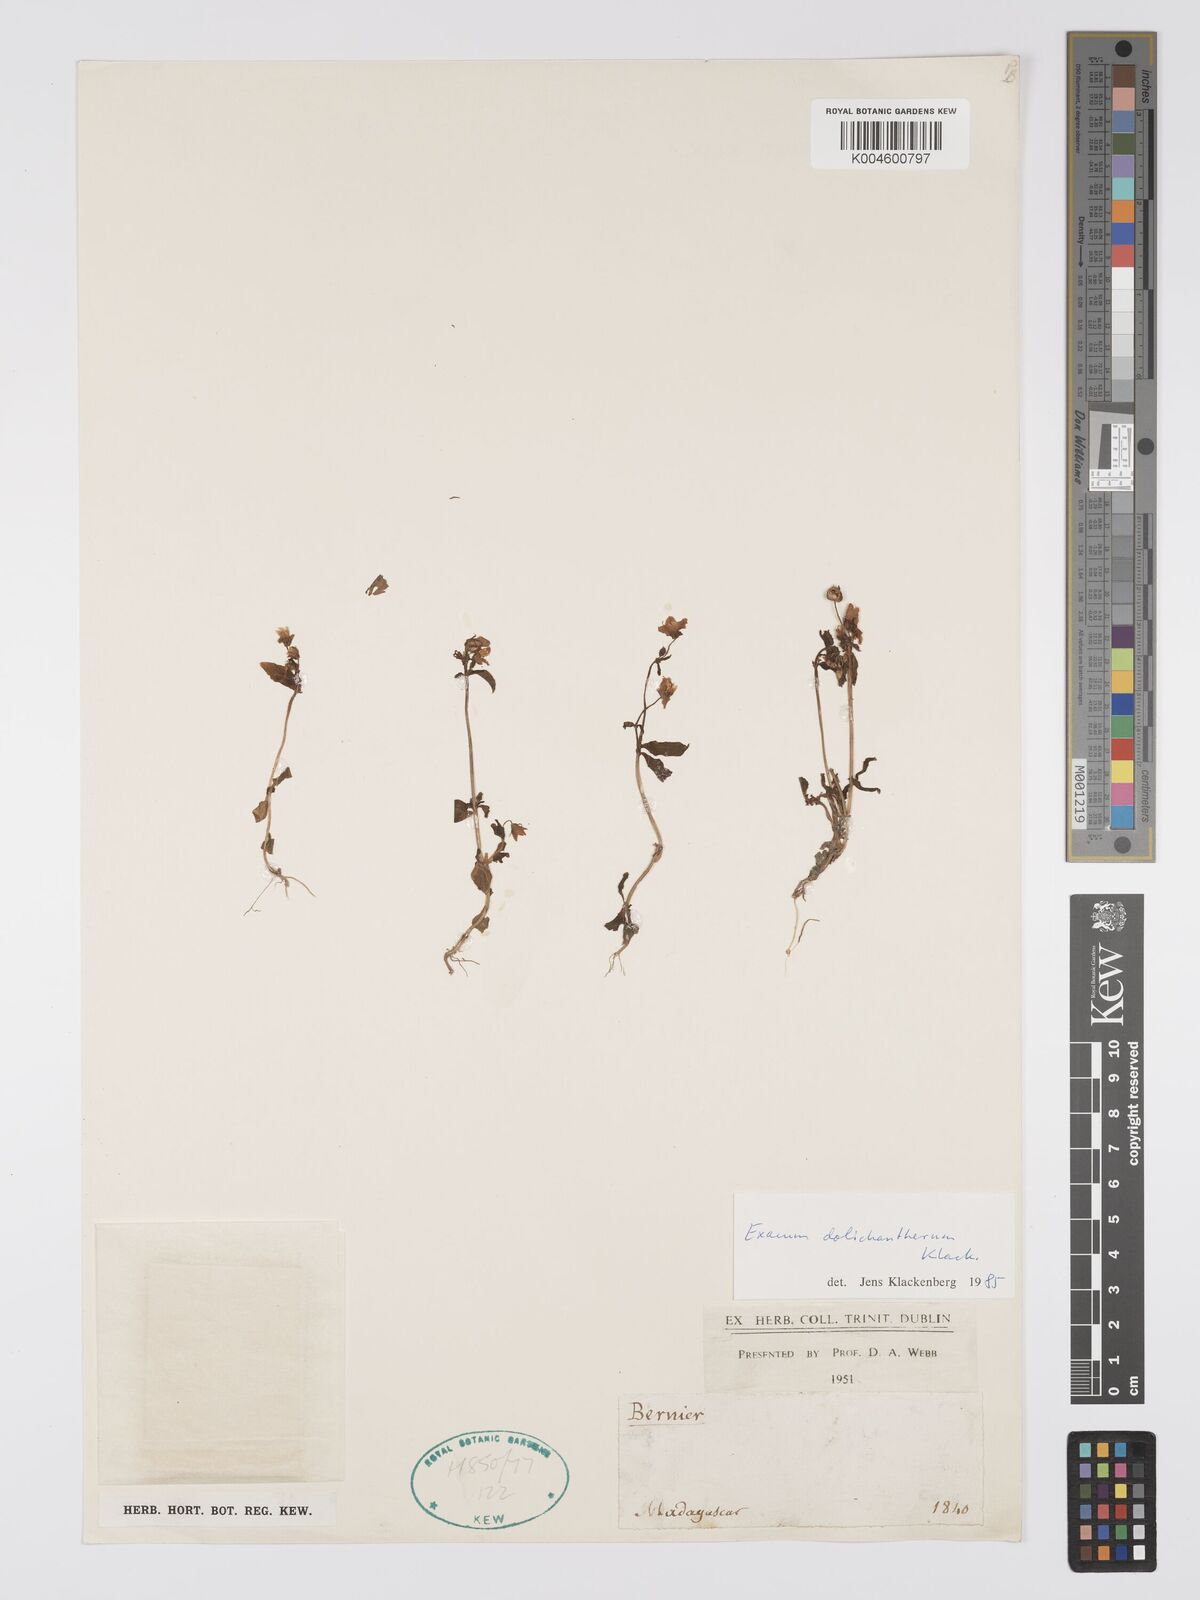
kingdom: Plantae
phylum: Tracheophyta
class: Magnoliopsida
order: Gentianales
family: Gentianaceae
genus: Exacum
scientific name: Exacum dolichantherum
